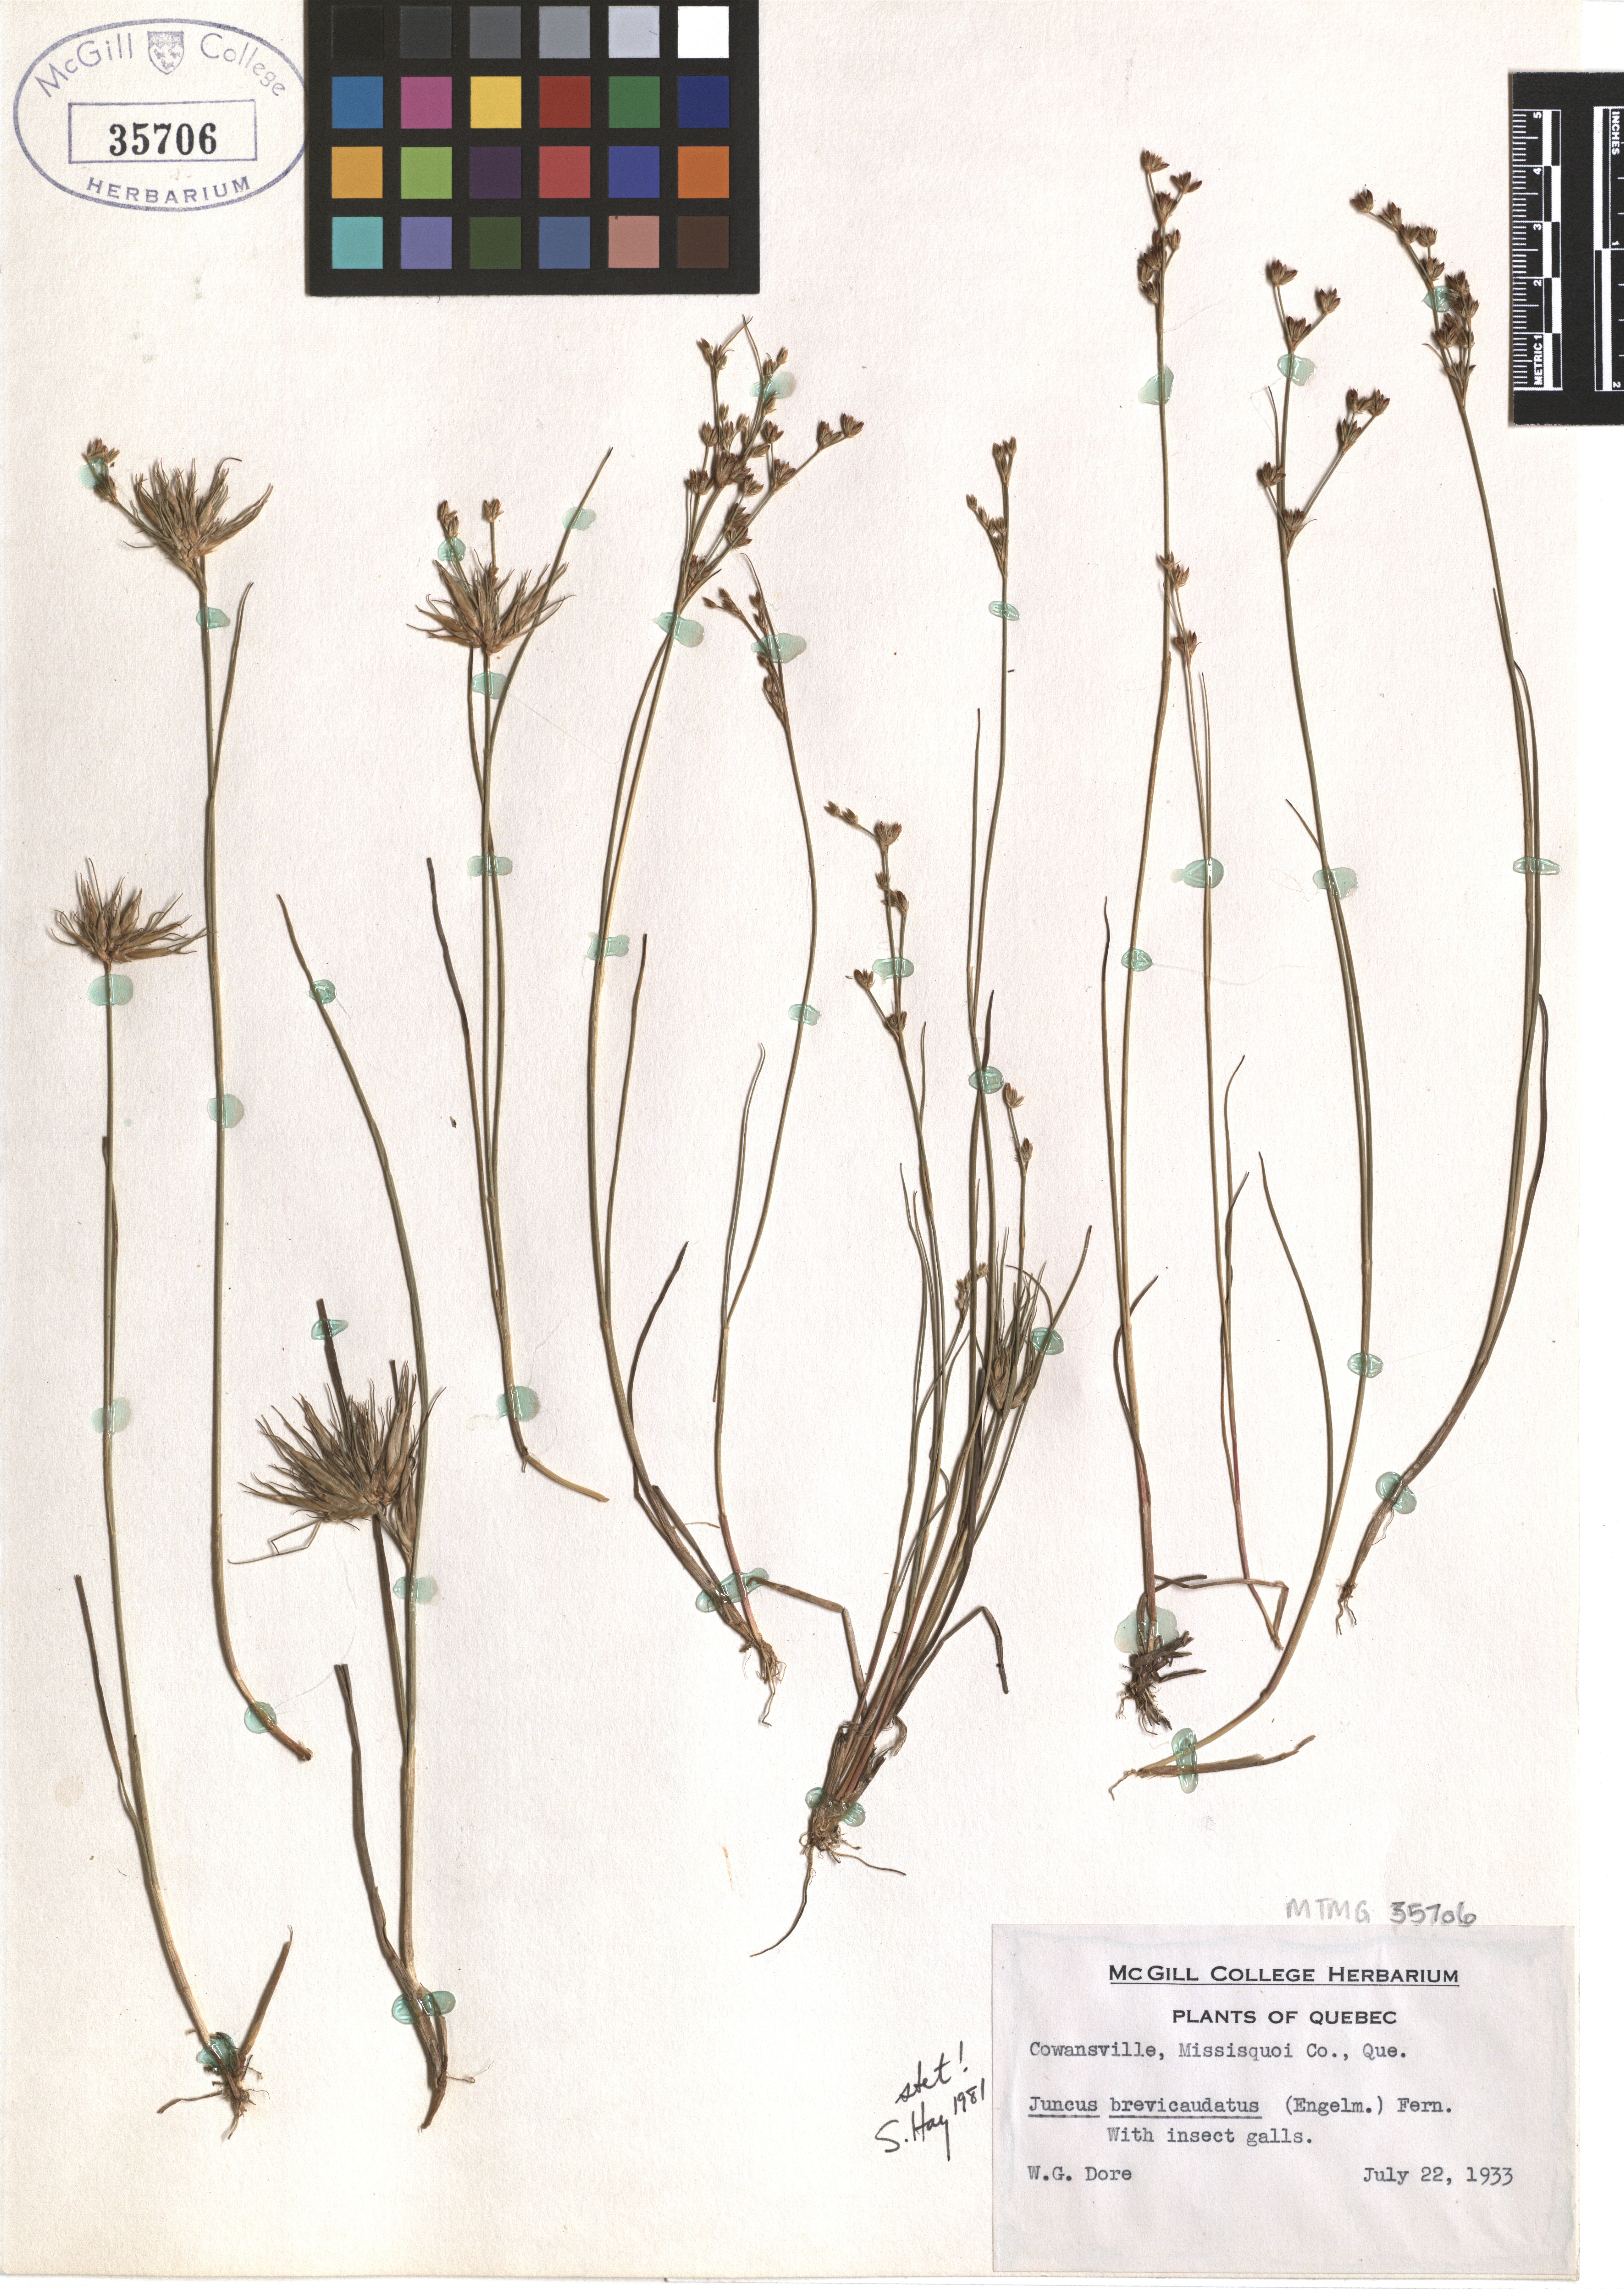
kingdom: Plantae
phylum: Tracheophyta
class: Liliopsida
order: Poales
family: Juncaceae
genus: Juncus
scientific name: Juncus brevicaudatus
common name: Narrow-panicle rush
